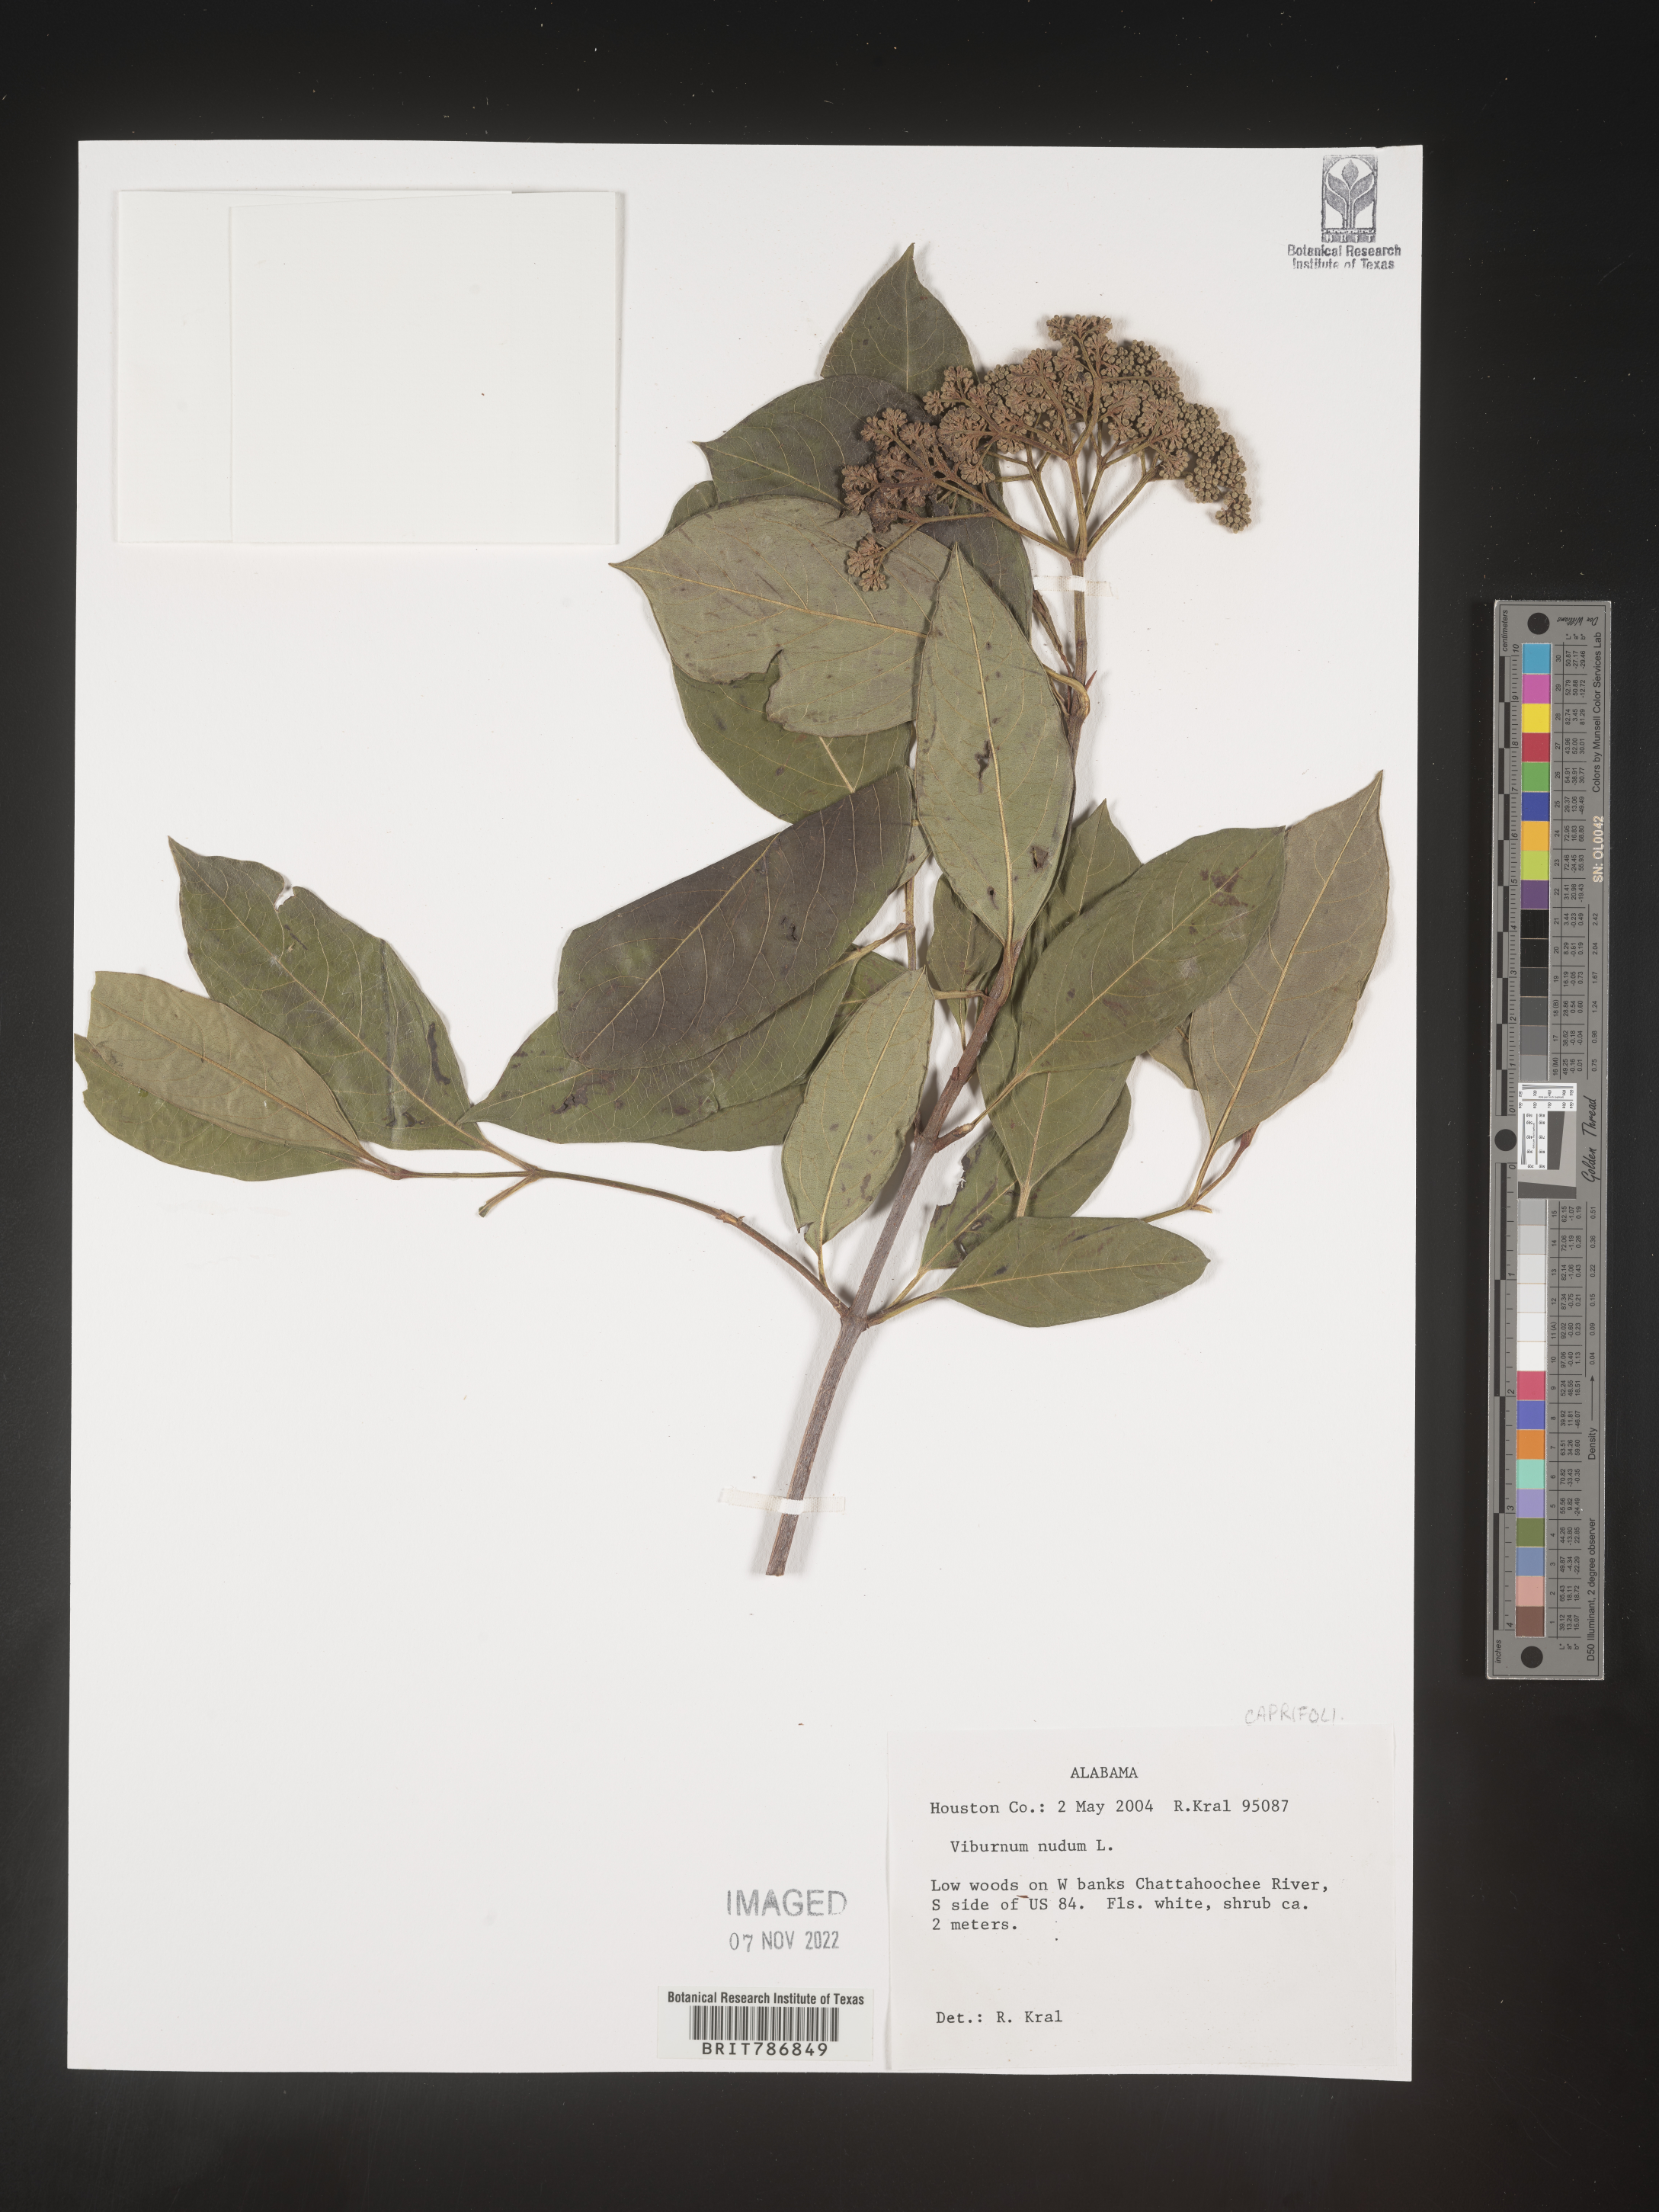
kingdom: Plantae
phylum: Tracheophyta
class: Magnoliopsida
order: Dipsacales
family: Viburnaceae
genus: Viburnum
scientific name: Viburnum nudum
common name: Possum haw
